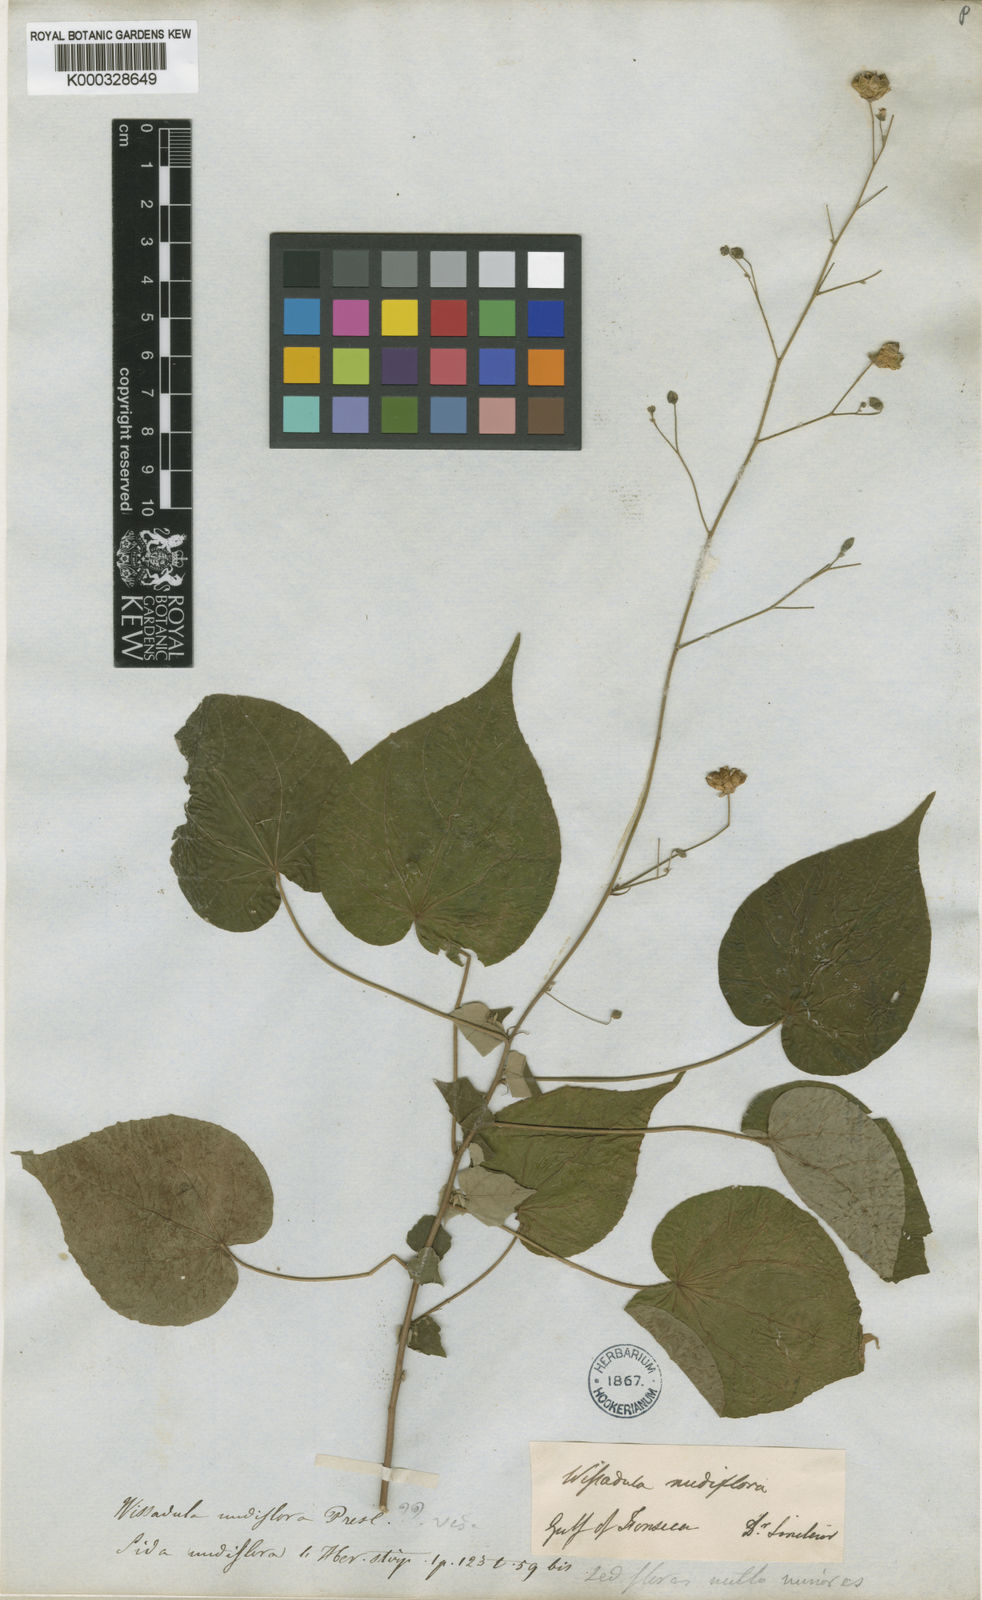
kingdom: Plantae
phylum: Tracheophyta
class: Magnoliopsida
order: Malvales
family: Malvaceae
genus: Wissadula
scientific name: Wissadula
